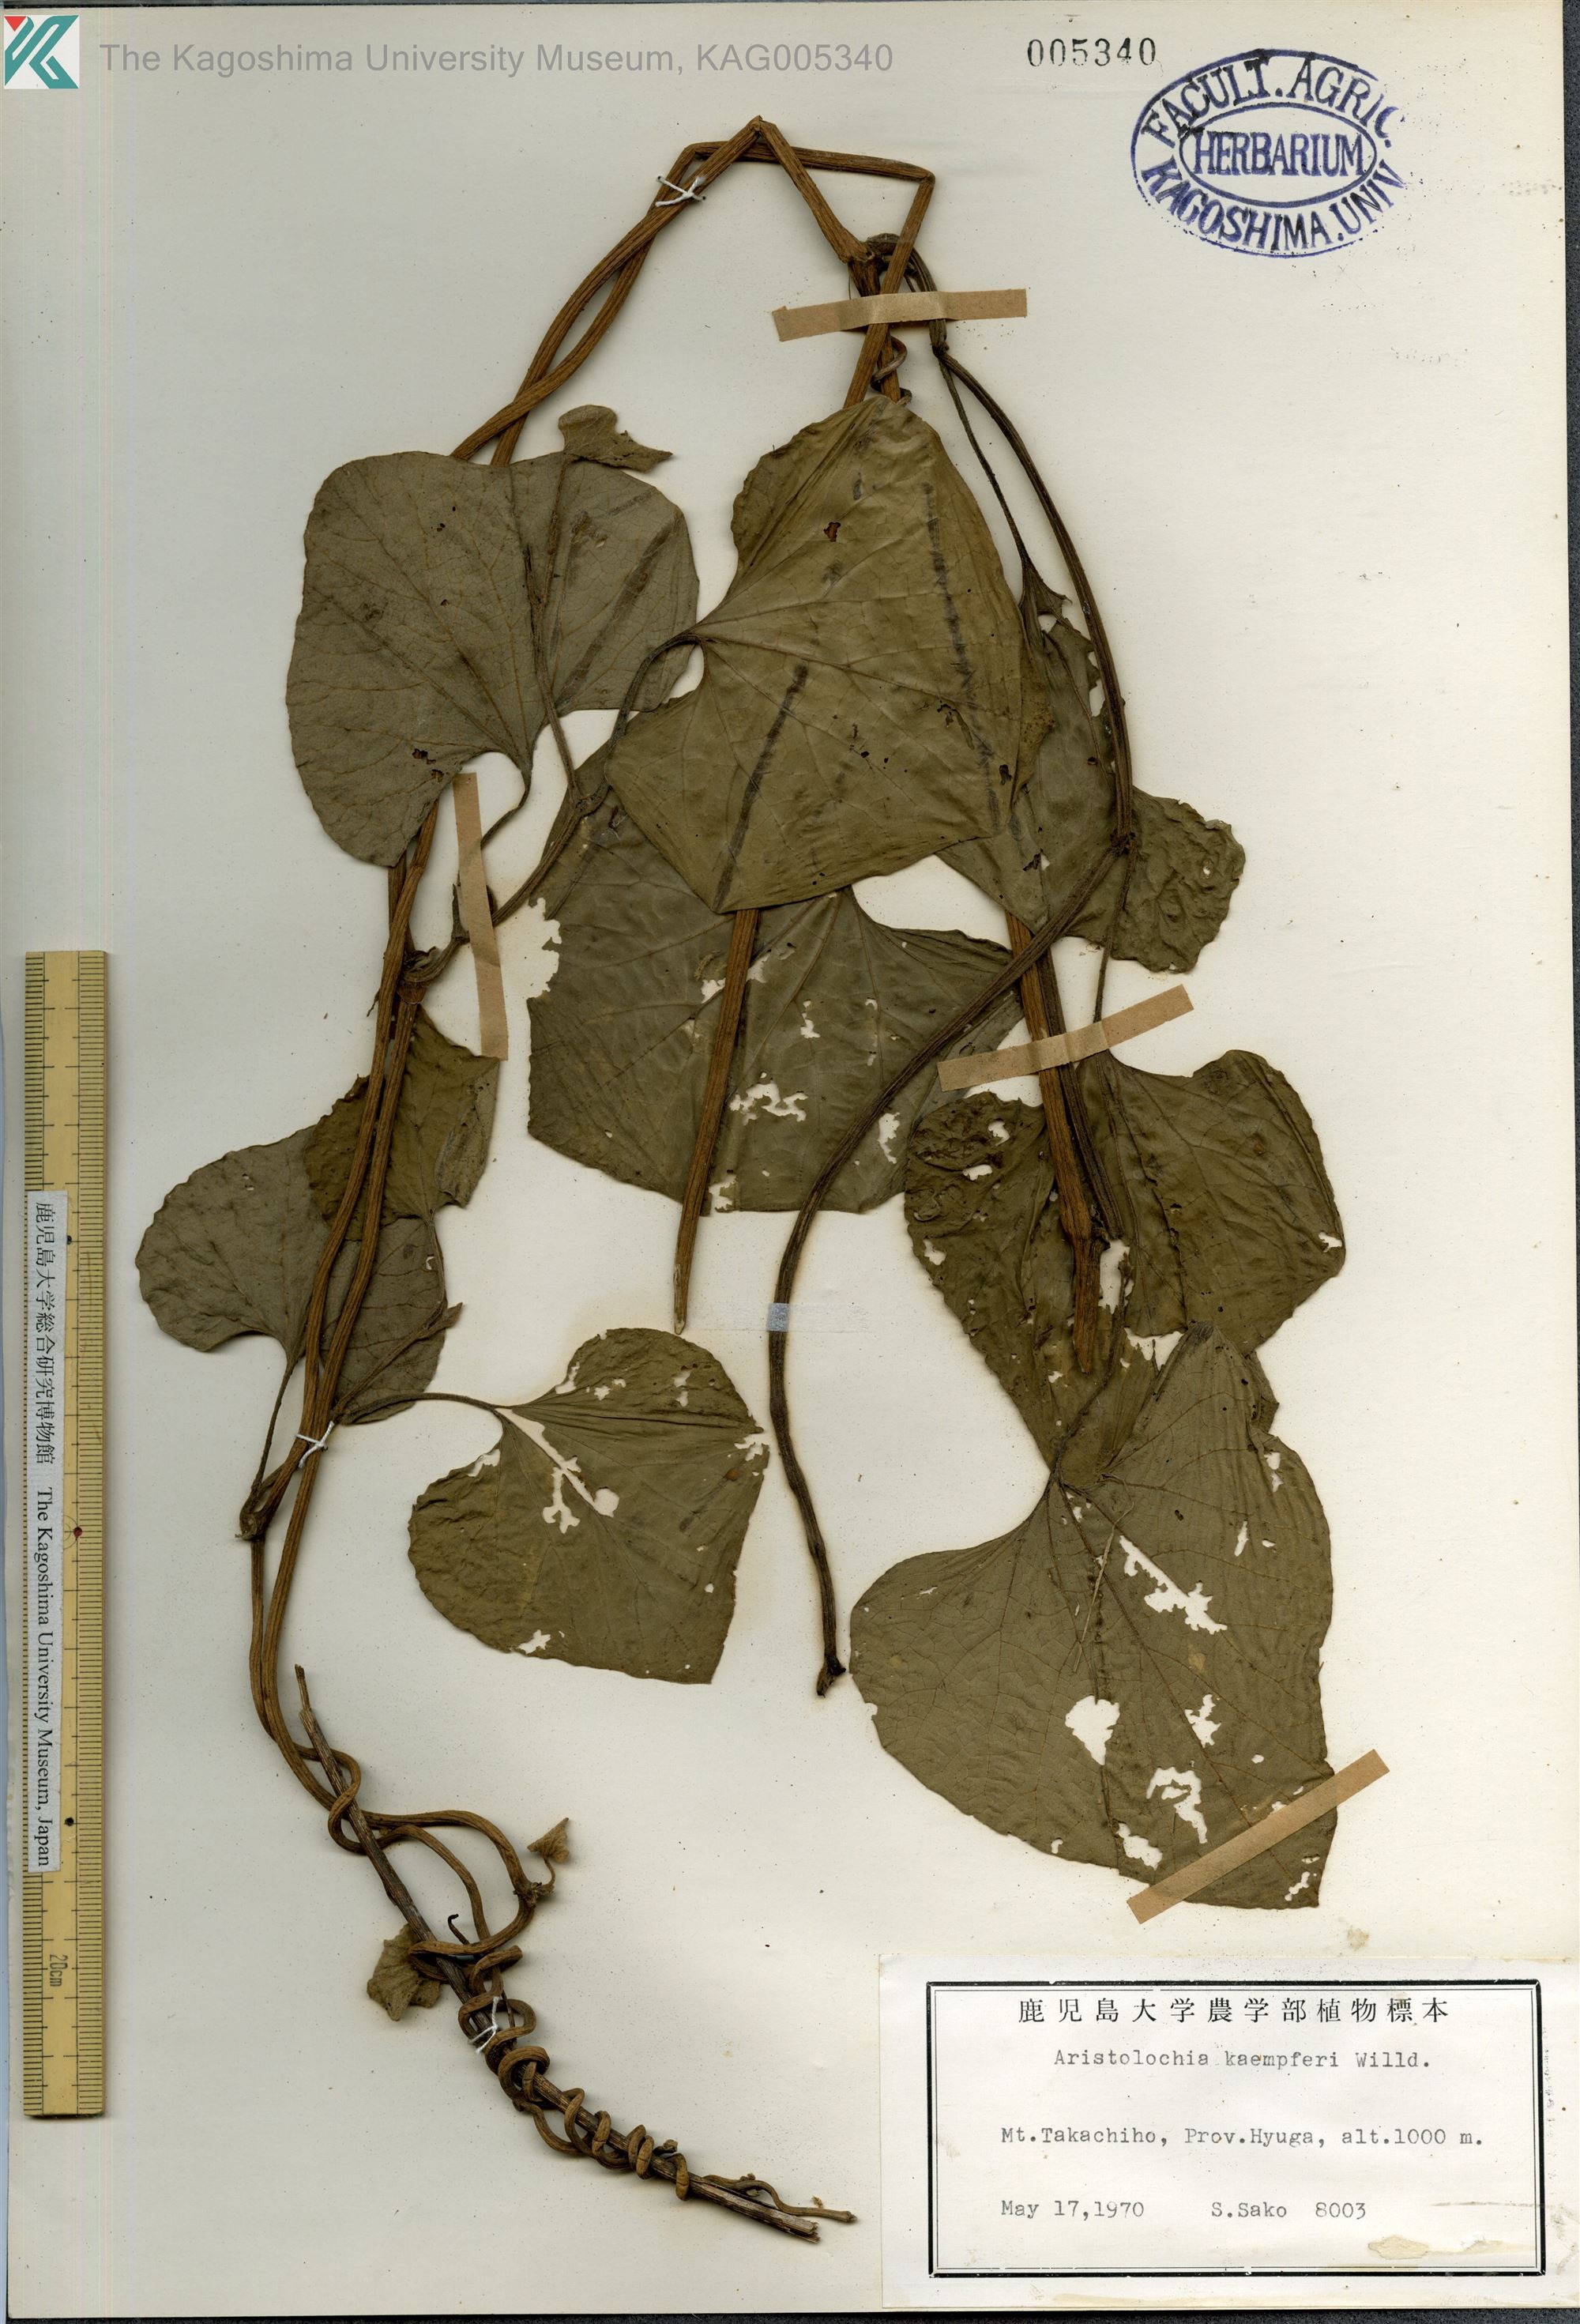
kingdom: Plantae
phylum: Tracheophyta
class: Magnoliopsida
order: Piperales
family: Aristolochiaceae
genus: Isotrema
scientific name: Isotrema kaempferi
